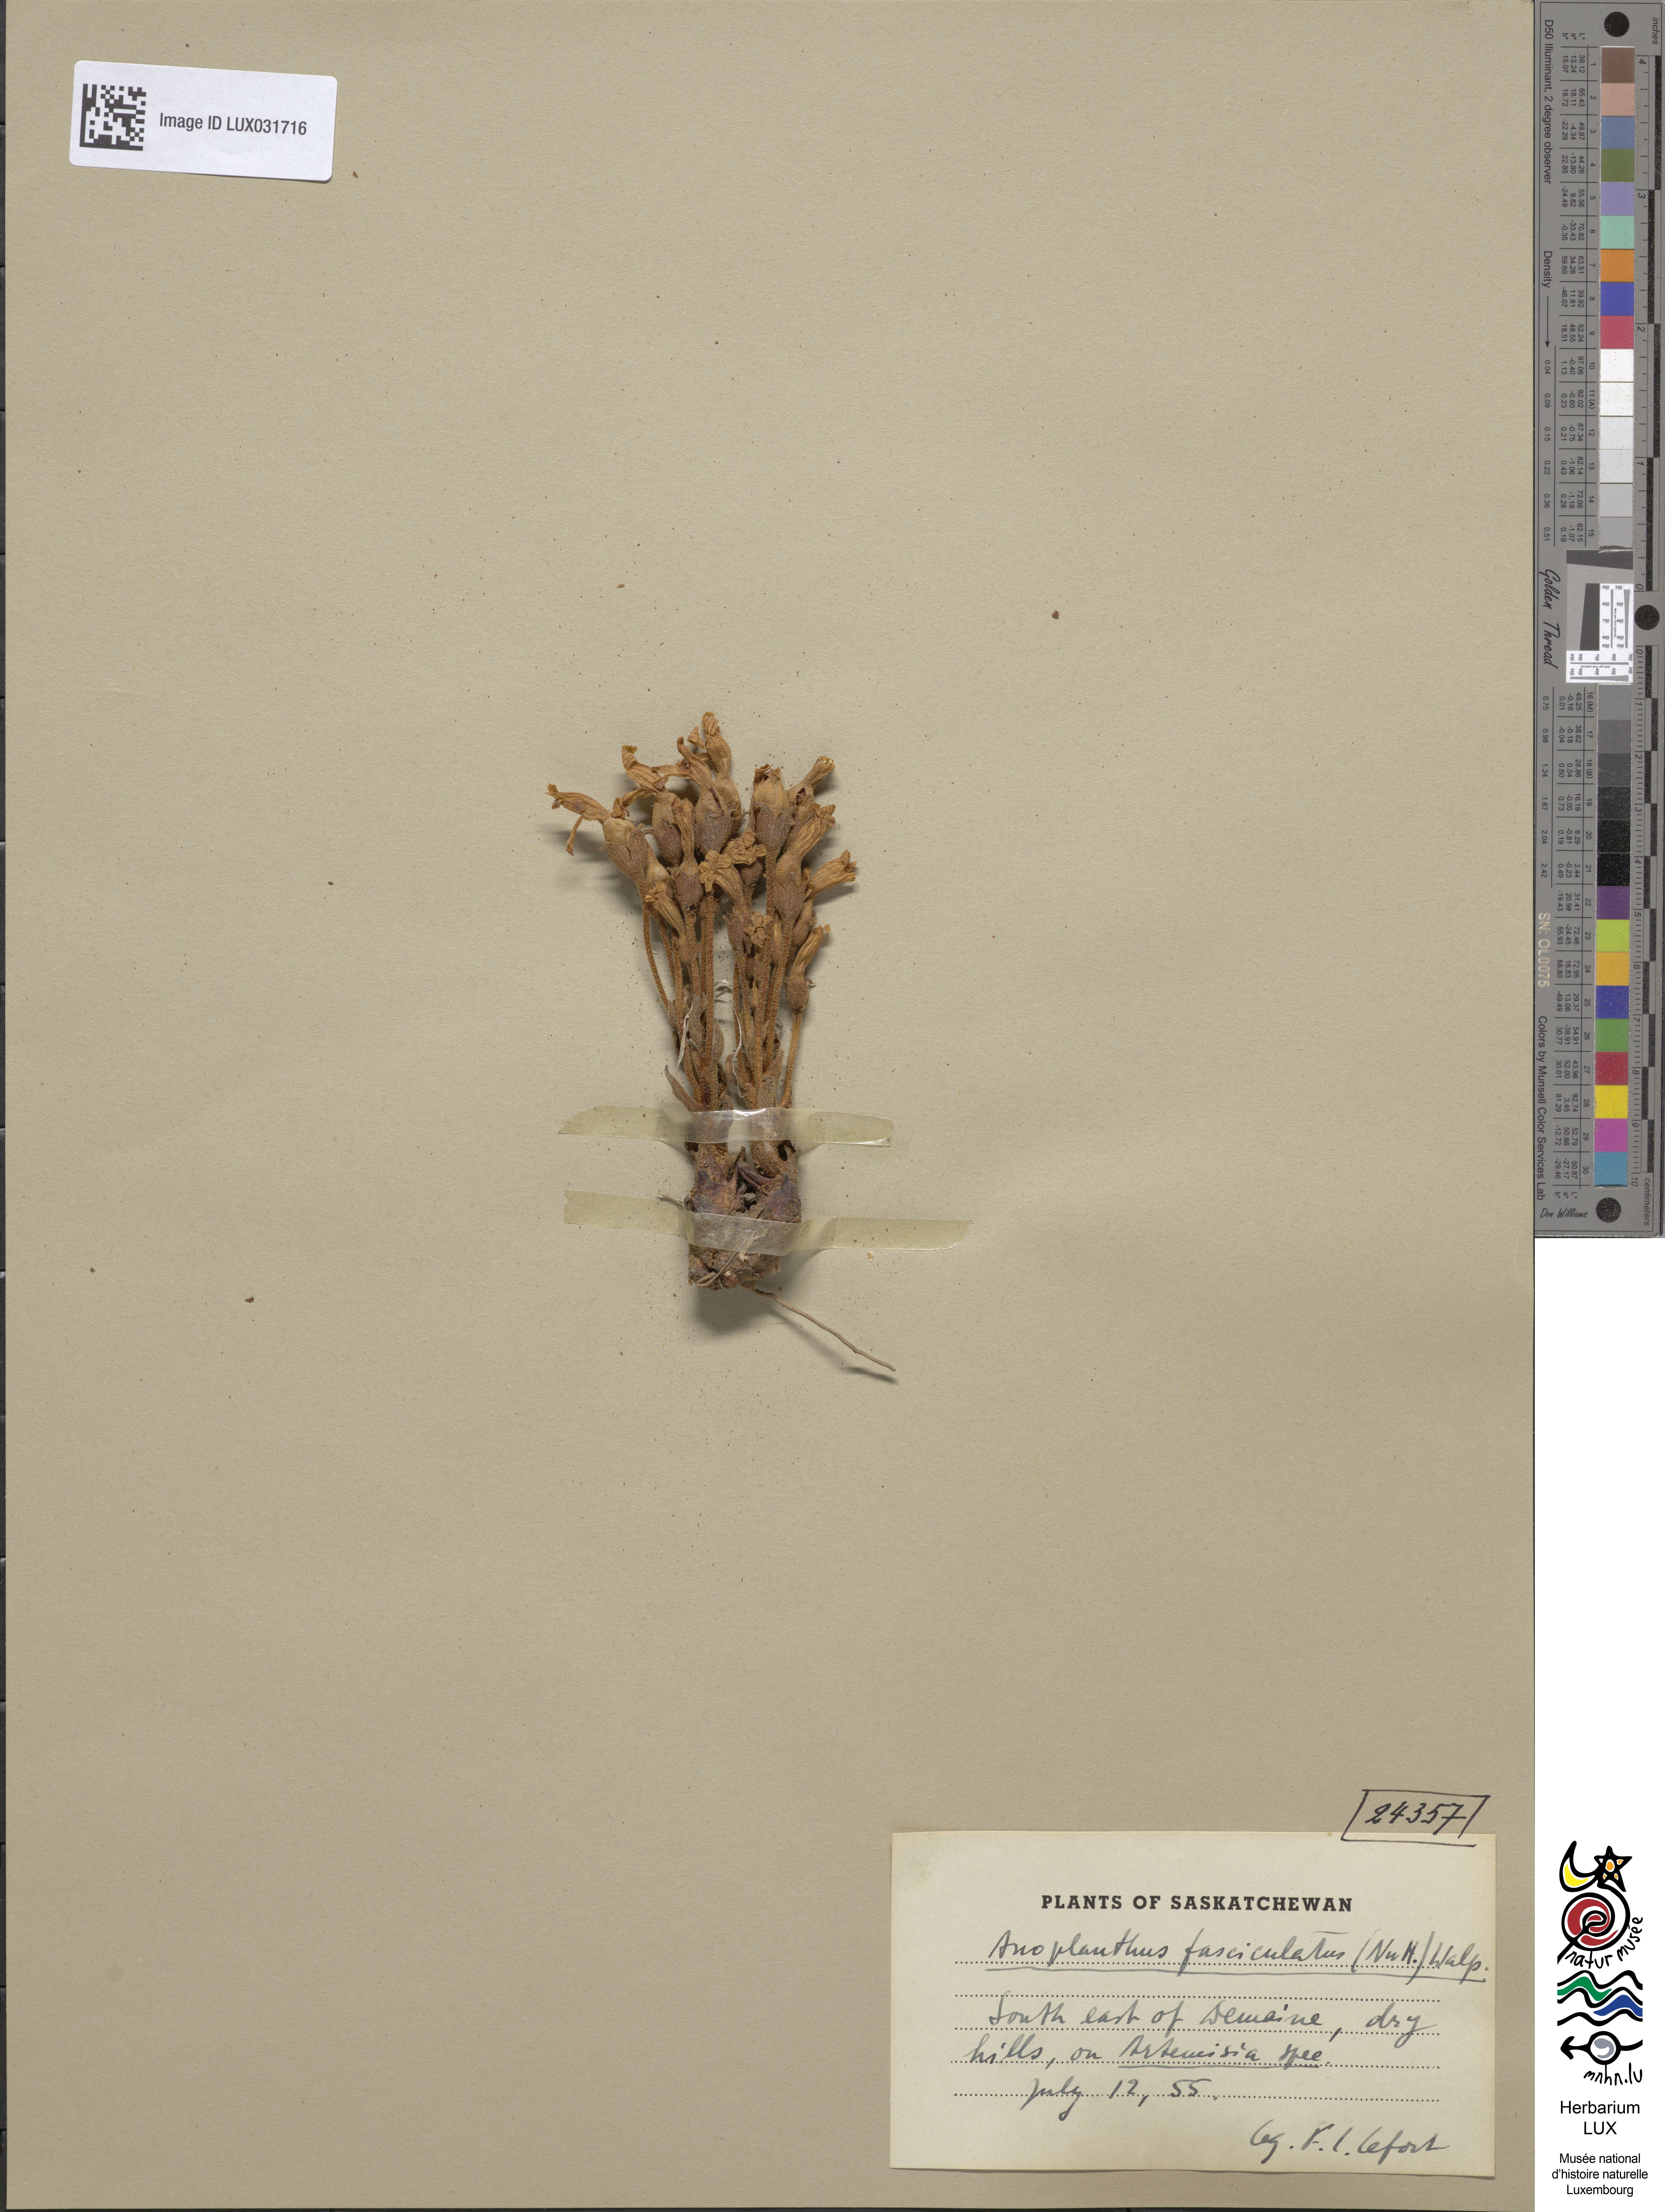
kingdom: Plantae
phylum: Tracheophyta
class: Magnoliopsida
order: Lamiales
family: Orobanchaceae
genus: Aphyllon
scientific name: Aphyllon fasciculatum
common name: Clustered broomrape
